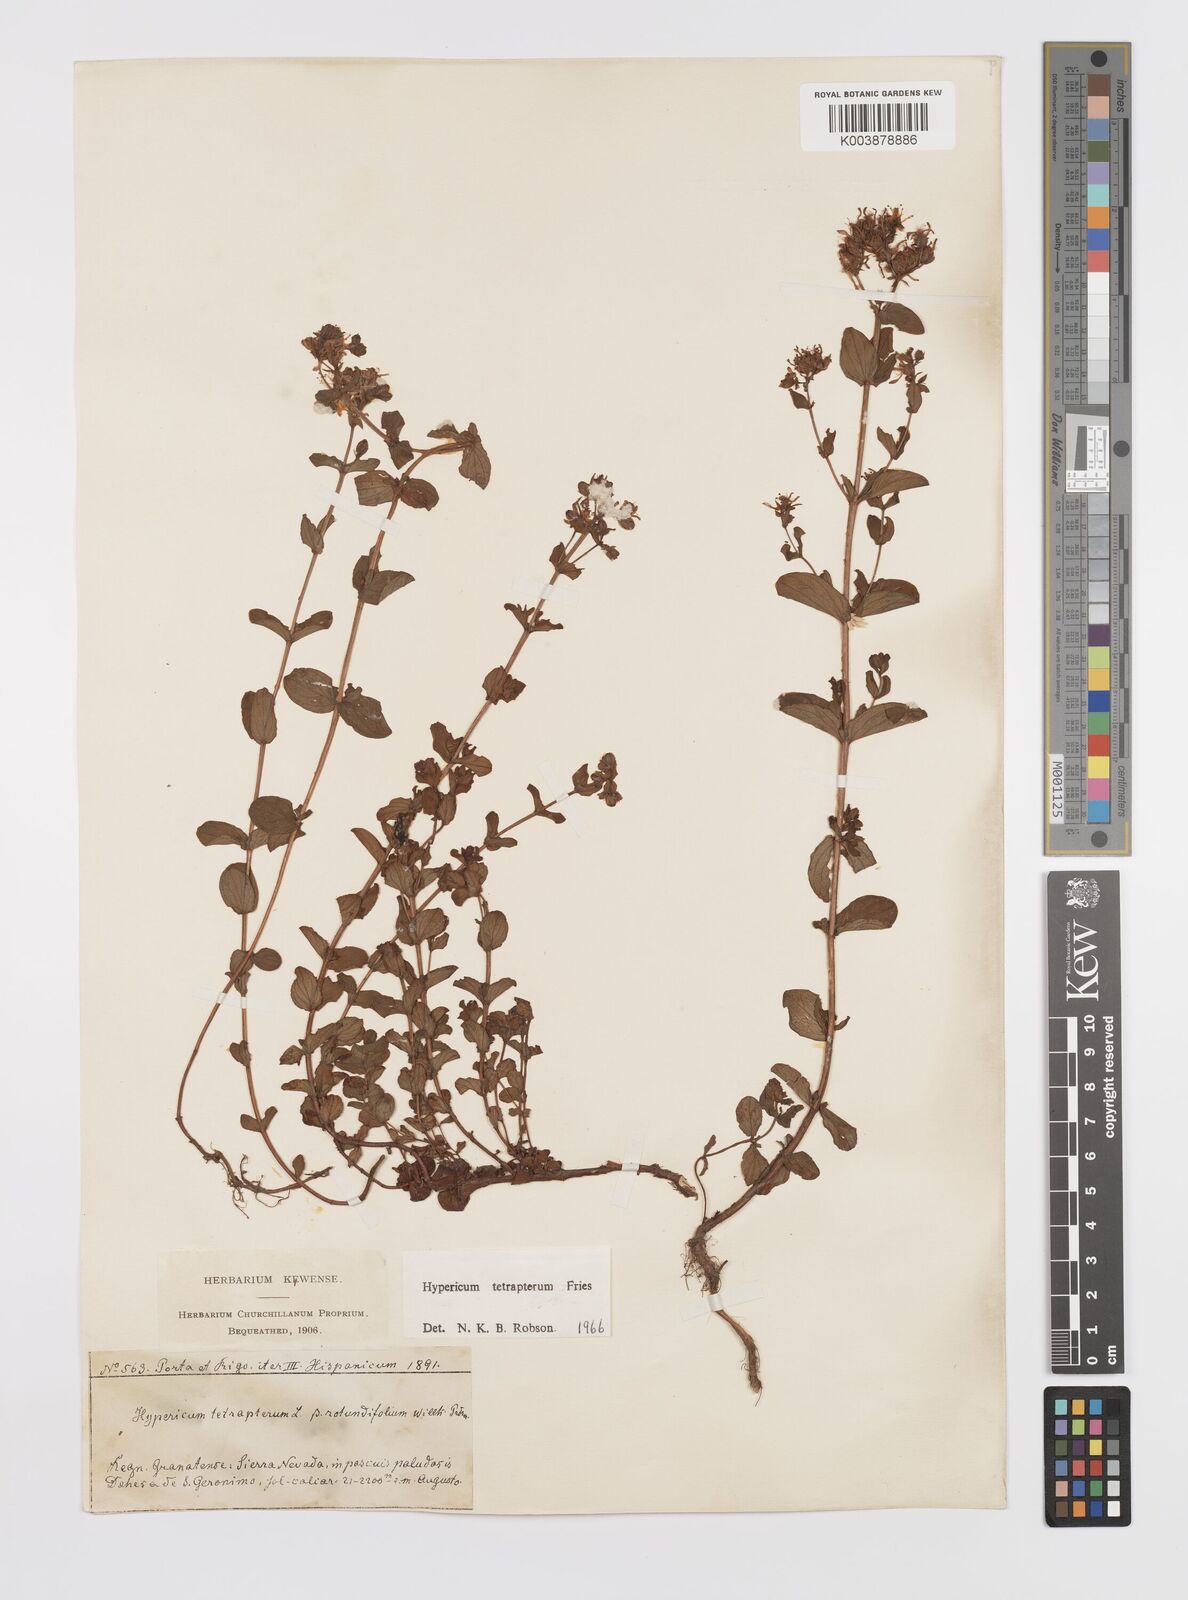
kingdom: Plantae
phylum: Tracheophyta
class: Magnoliopsida
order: Malpighiales
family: Hypericaceae
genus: Hypericum
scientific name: Hypericum tetrapterum
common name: Square-stalked st. john's-wort
